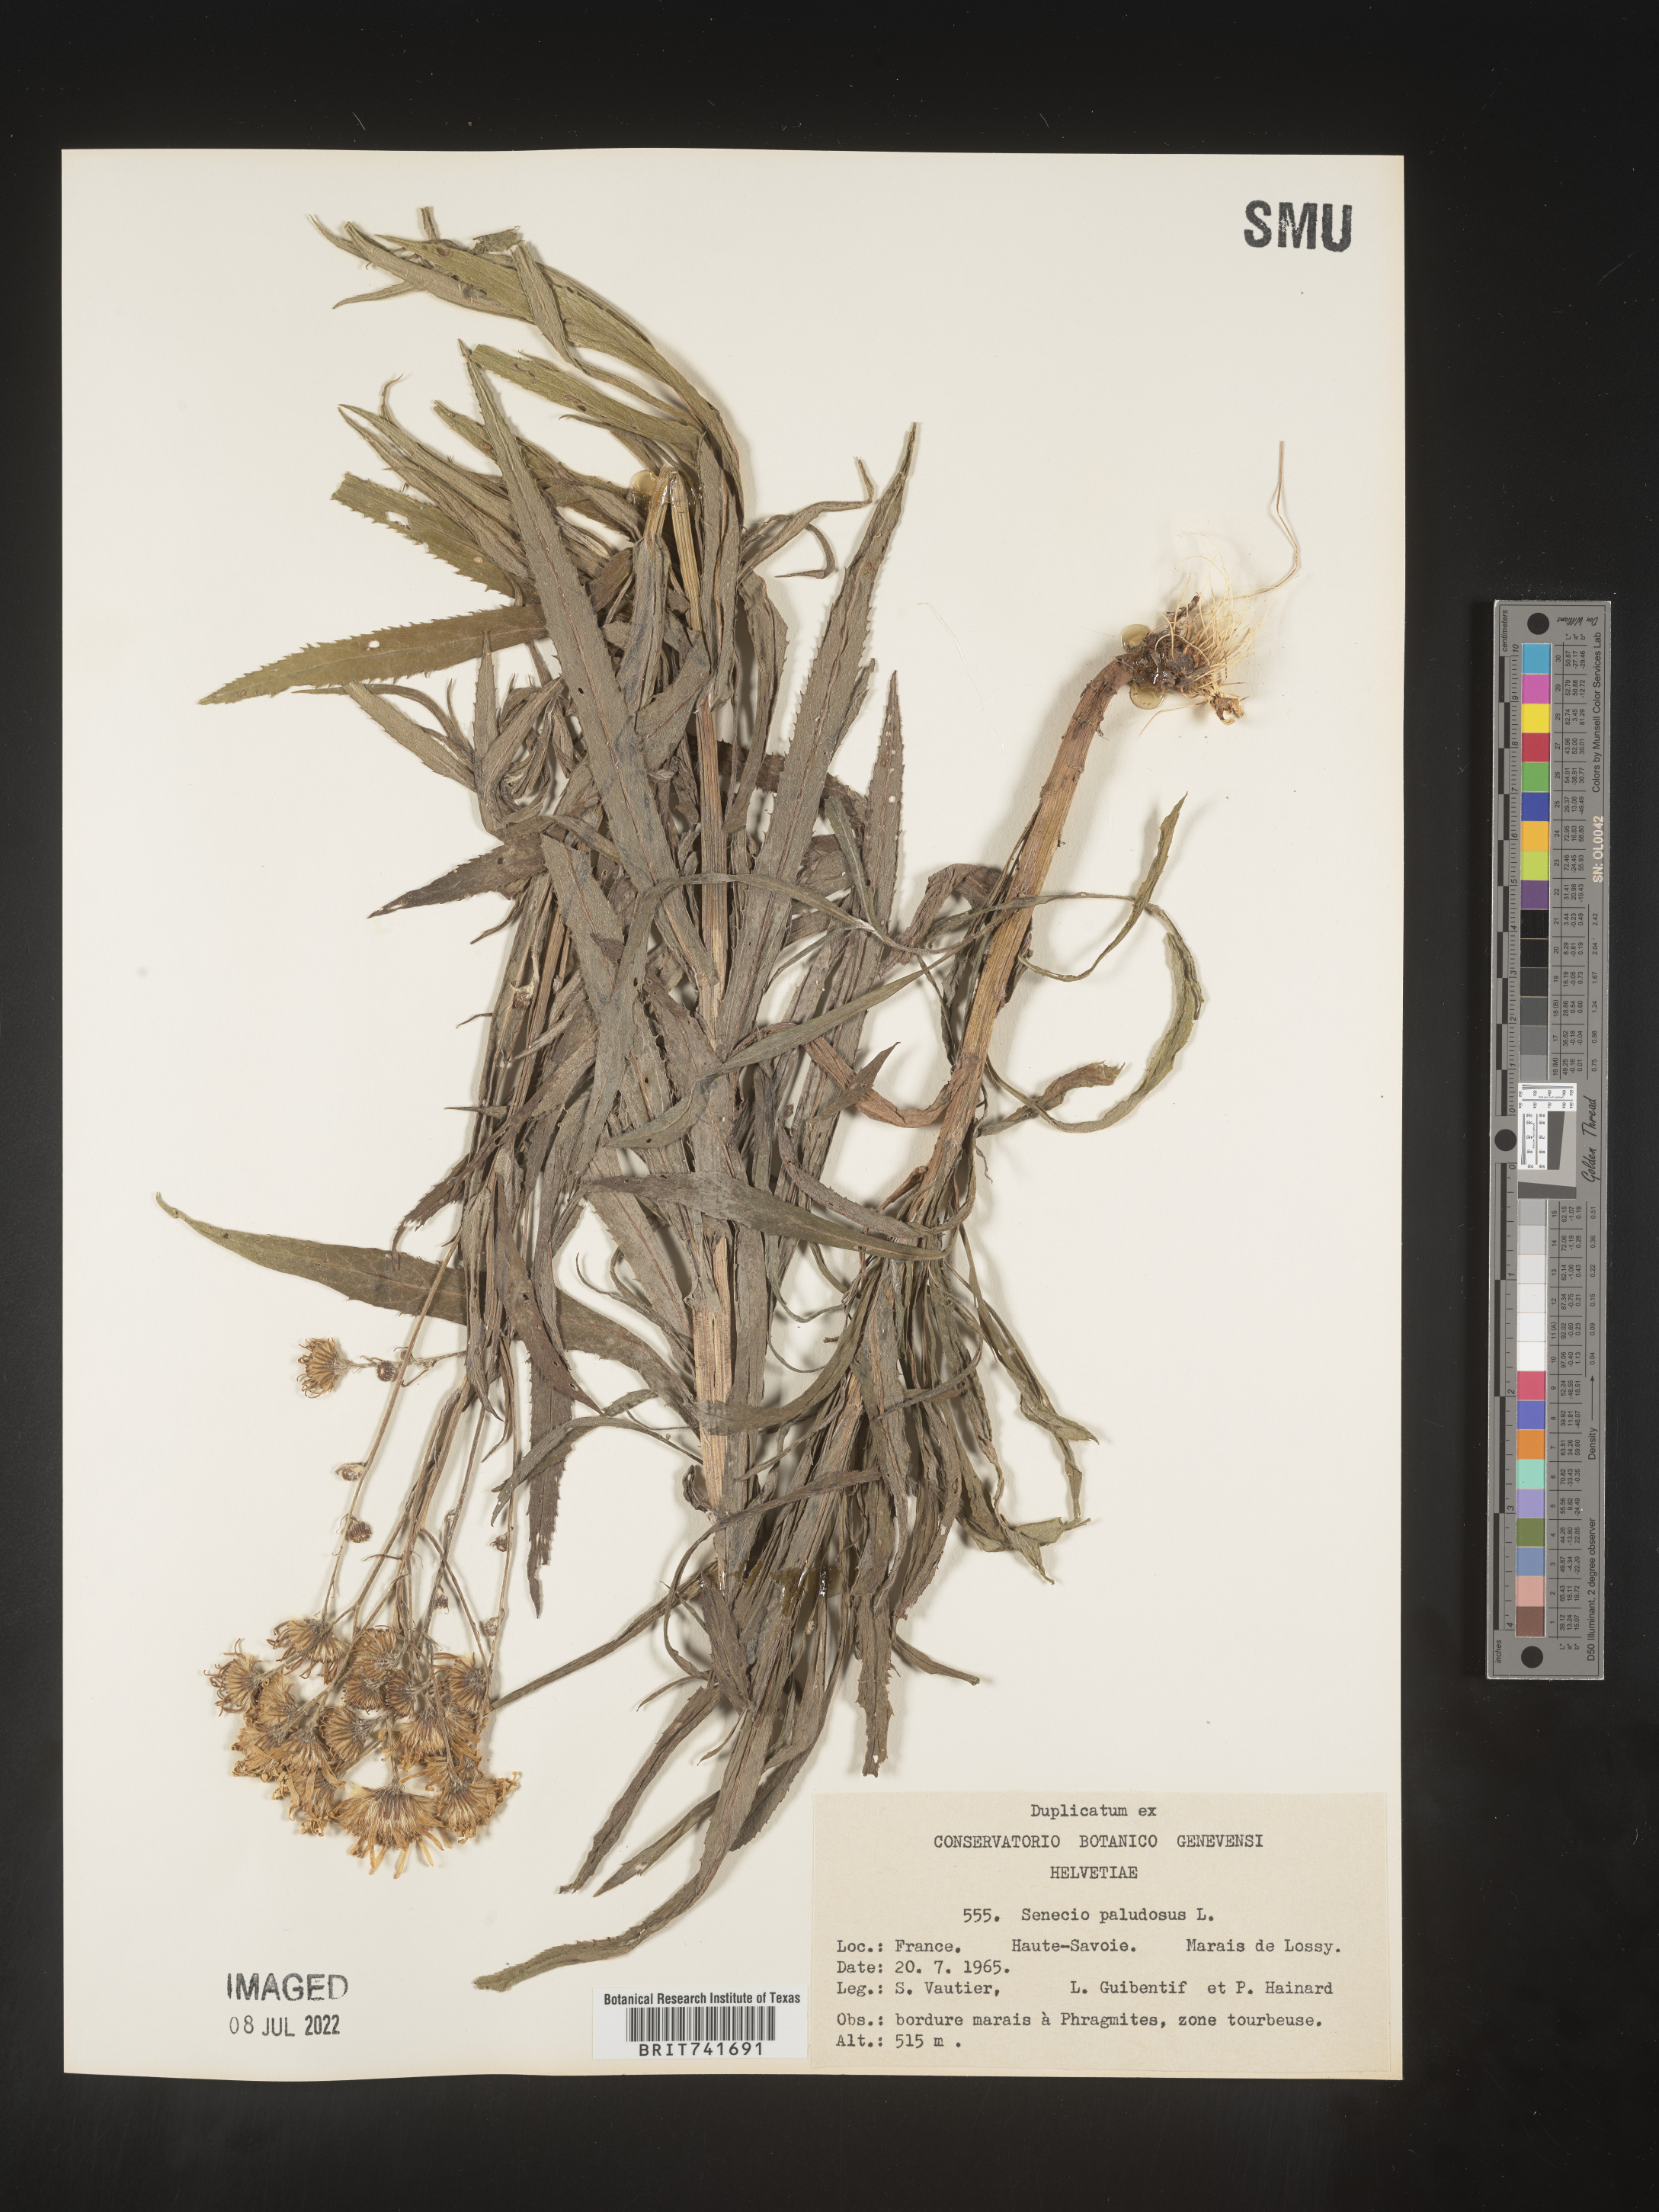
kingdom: Plantae
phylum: Tracheophyta
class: Magnoliopsida
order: Asterales
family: Asteraceae
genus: Senecio
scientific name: Senecio
